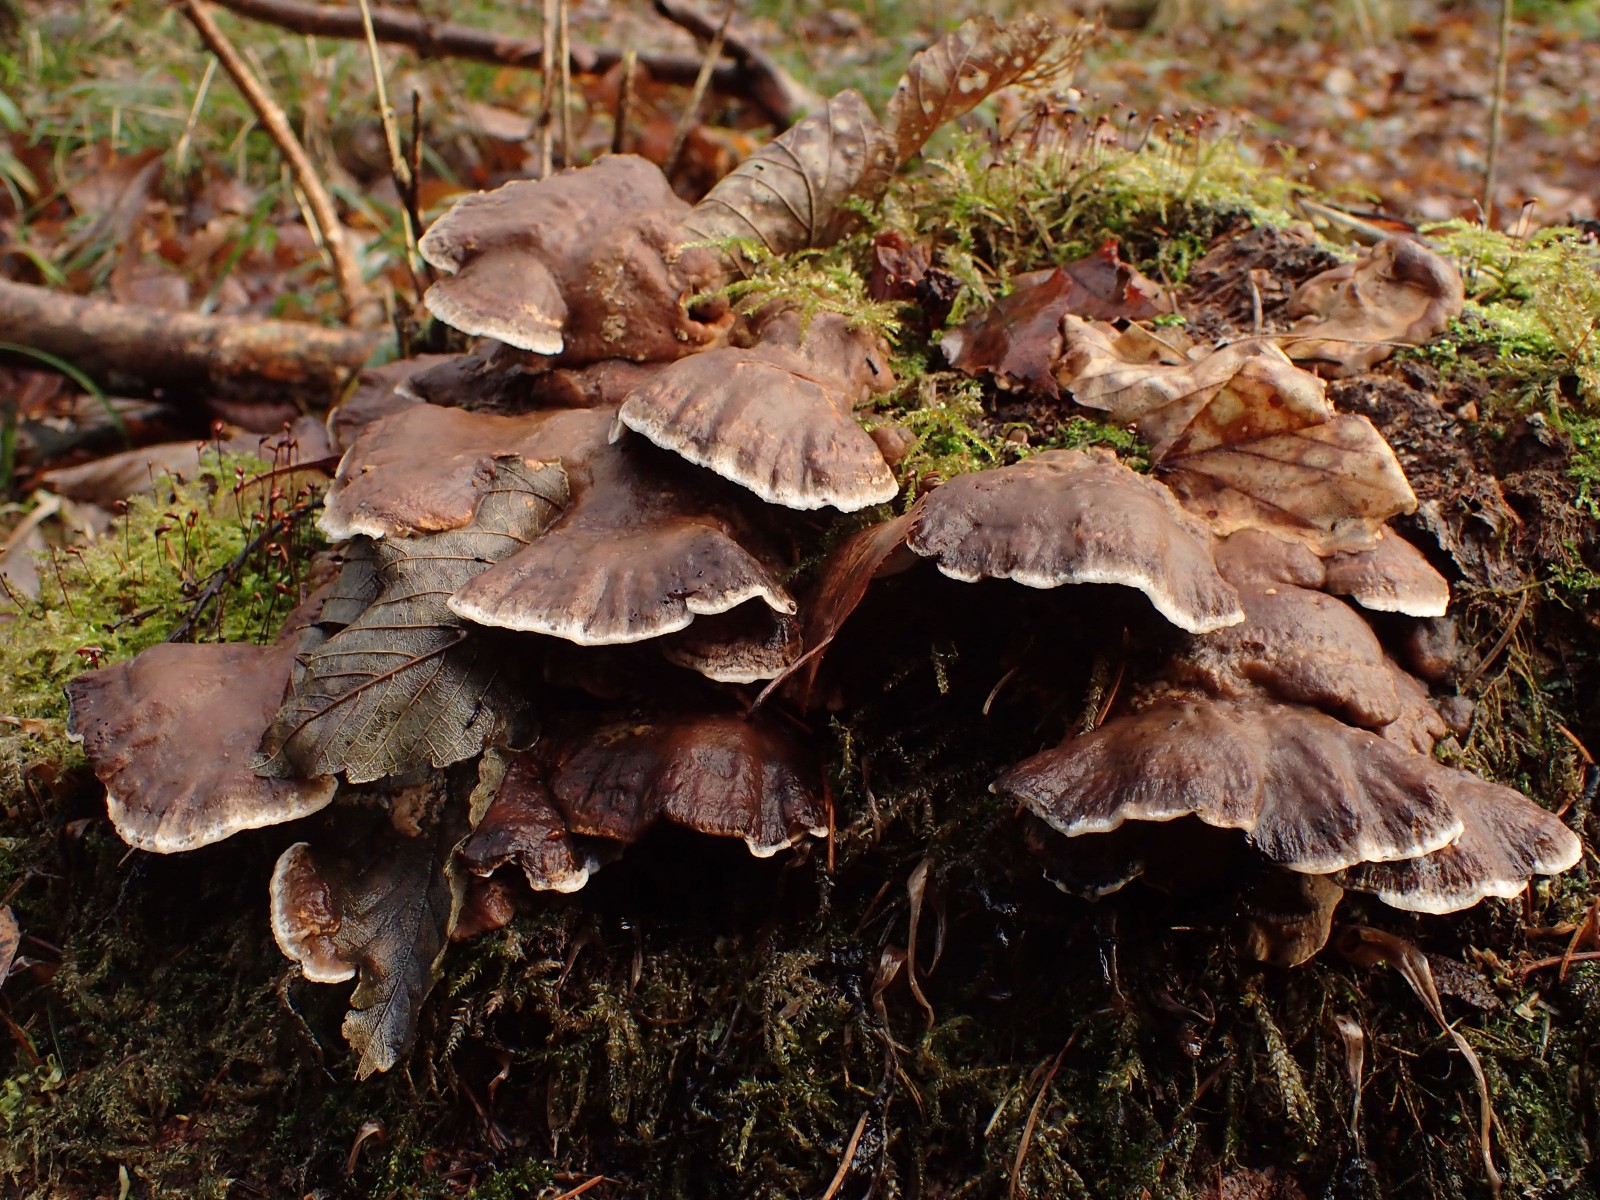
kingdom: Fungi
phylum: Basidiomycota
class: Agaricomycetes
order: Russulales
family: Hericiaceae
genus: Laxitextum
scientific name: Laxitextum bicolor
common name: tvefarvet filtskind
